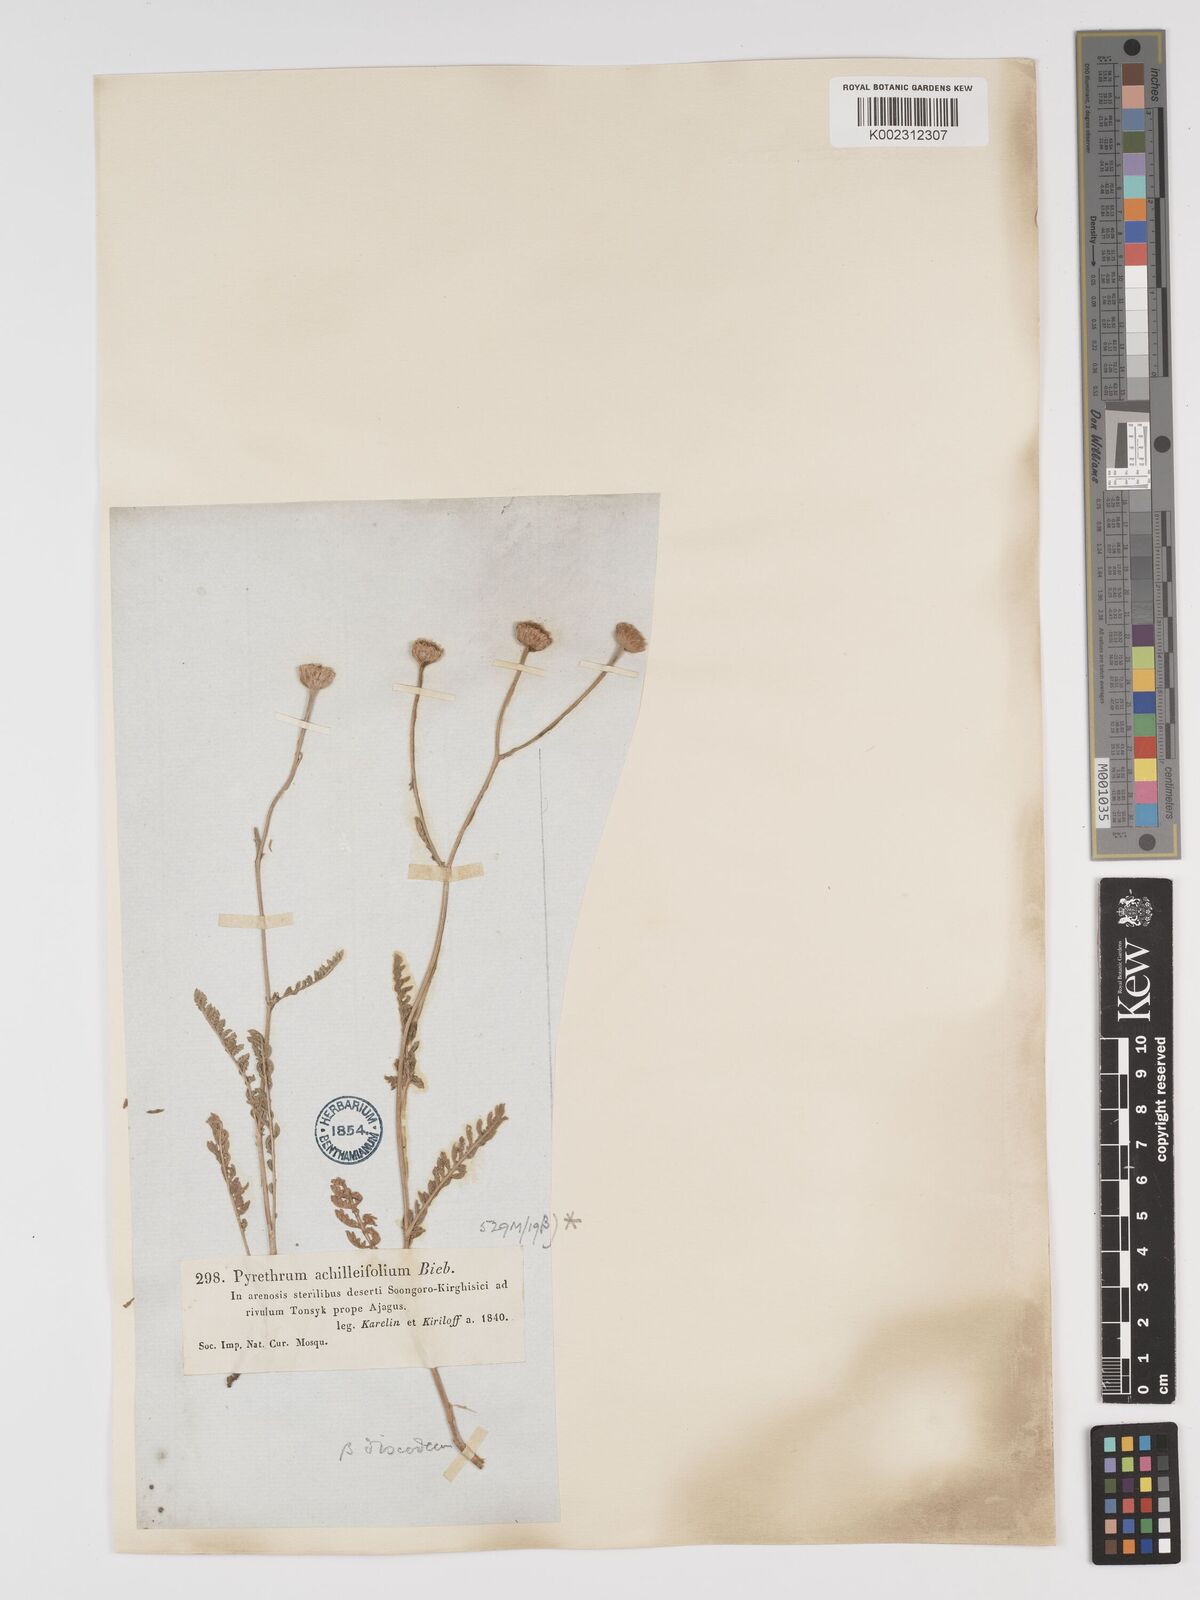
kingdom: Plantae
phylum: Tracheophyta
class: Magnoliopsida
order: Asterales
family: Asteraceae
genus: Tanacetum
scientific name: Tanacetum barclayanum
